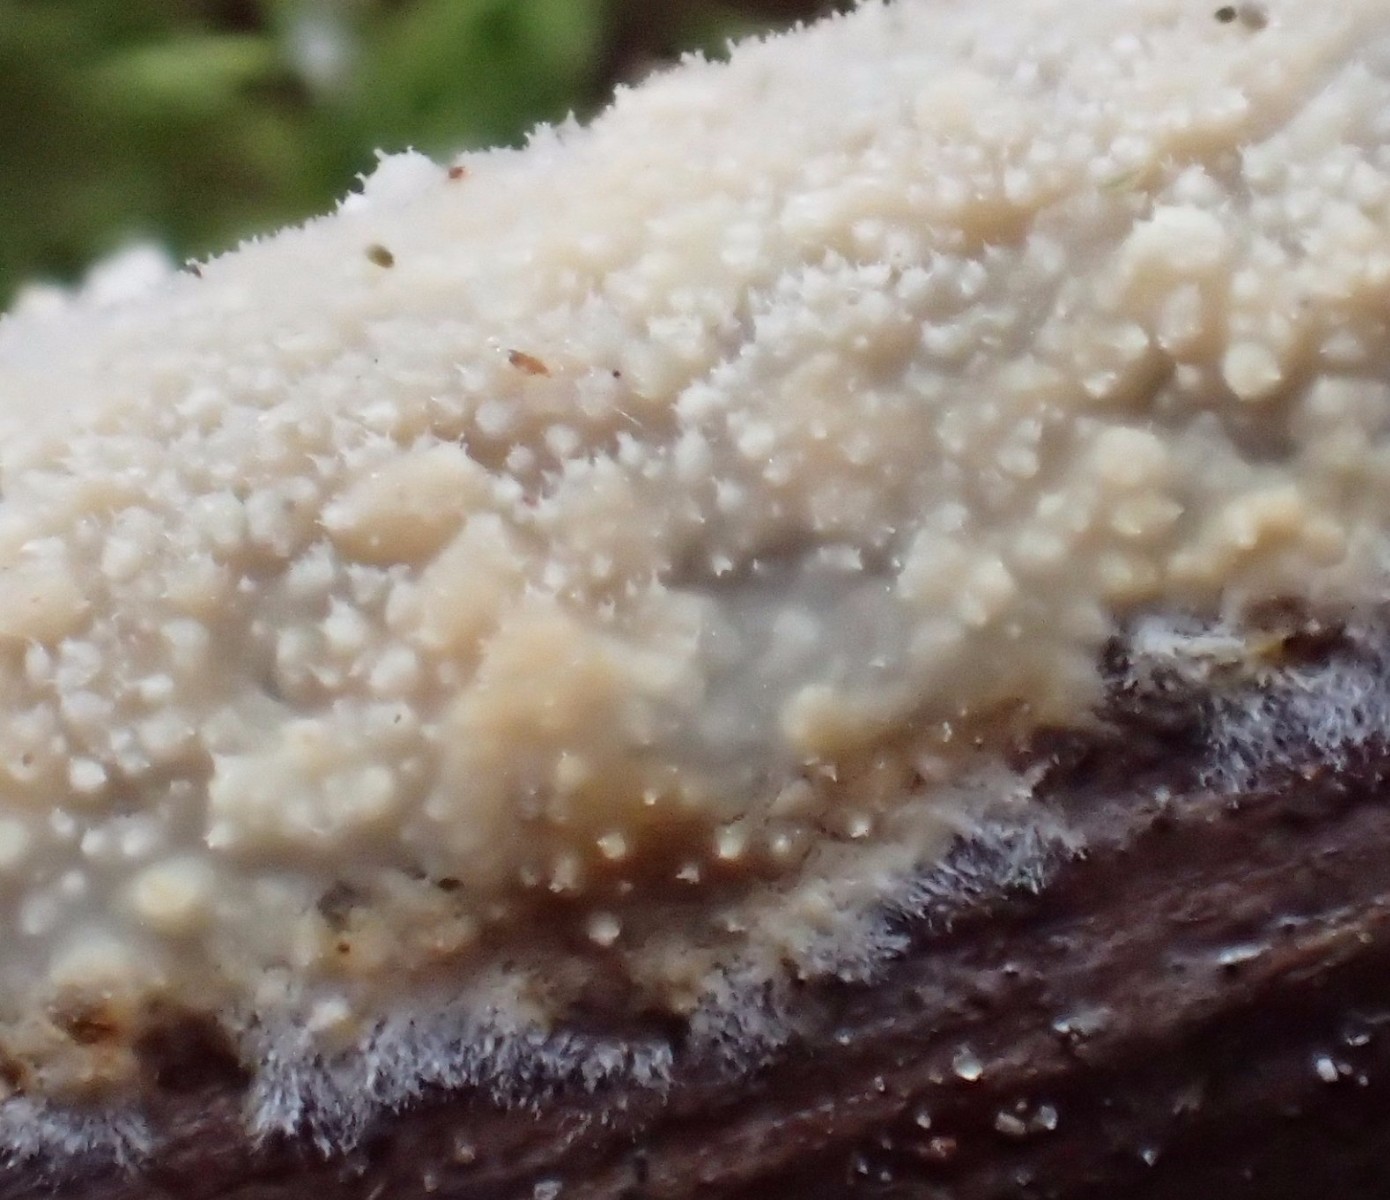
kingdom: Fungi
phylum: Basidiomycota
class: Agaricomycetes
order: Corticiales
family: Corticiaceae
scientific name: Corticiaceae
